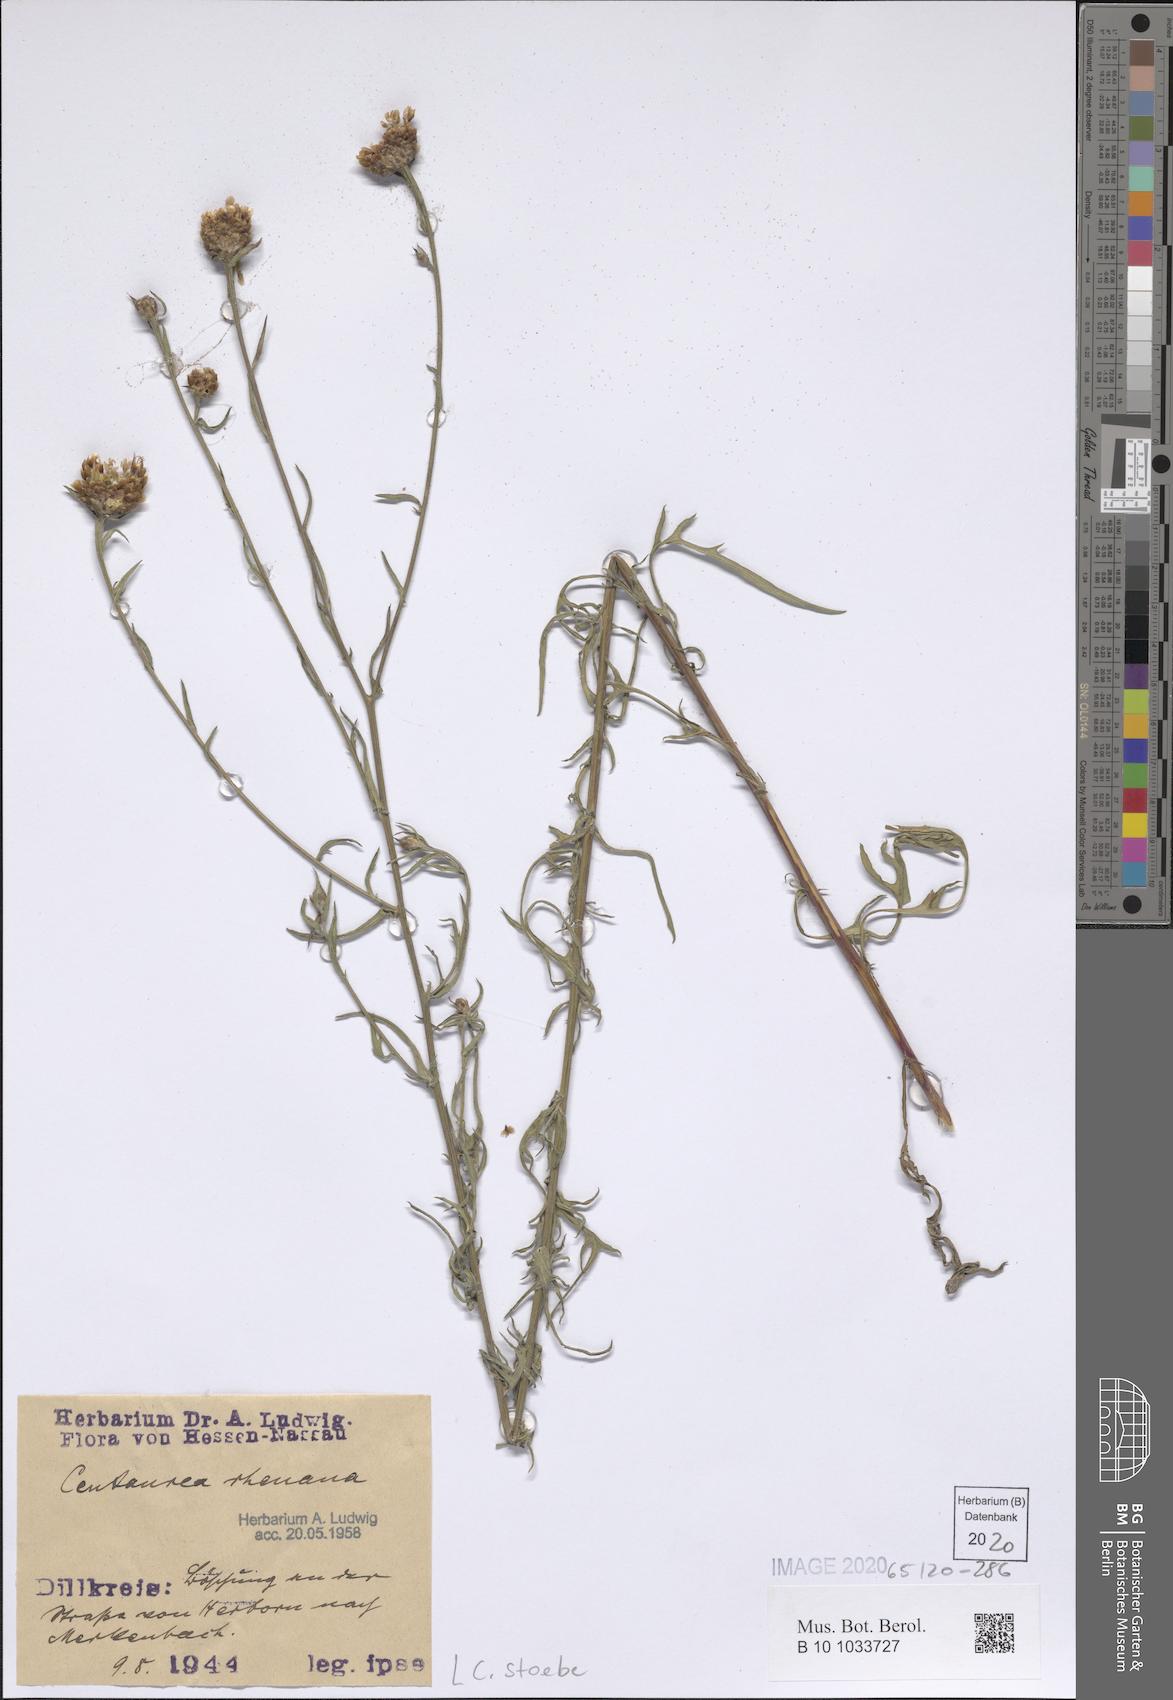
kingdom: Plantae
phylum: Tracheophyta
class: Magnoliopsida
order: Asterales
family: Asteraceae
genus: Centaurea
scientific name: Centaurea stoebe
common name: Spotted knapweed
